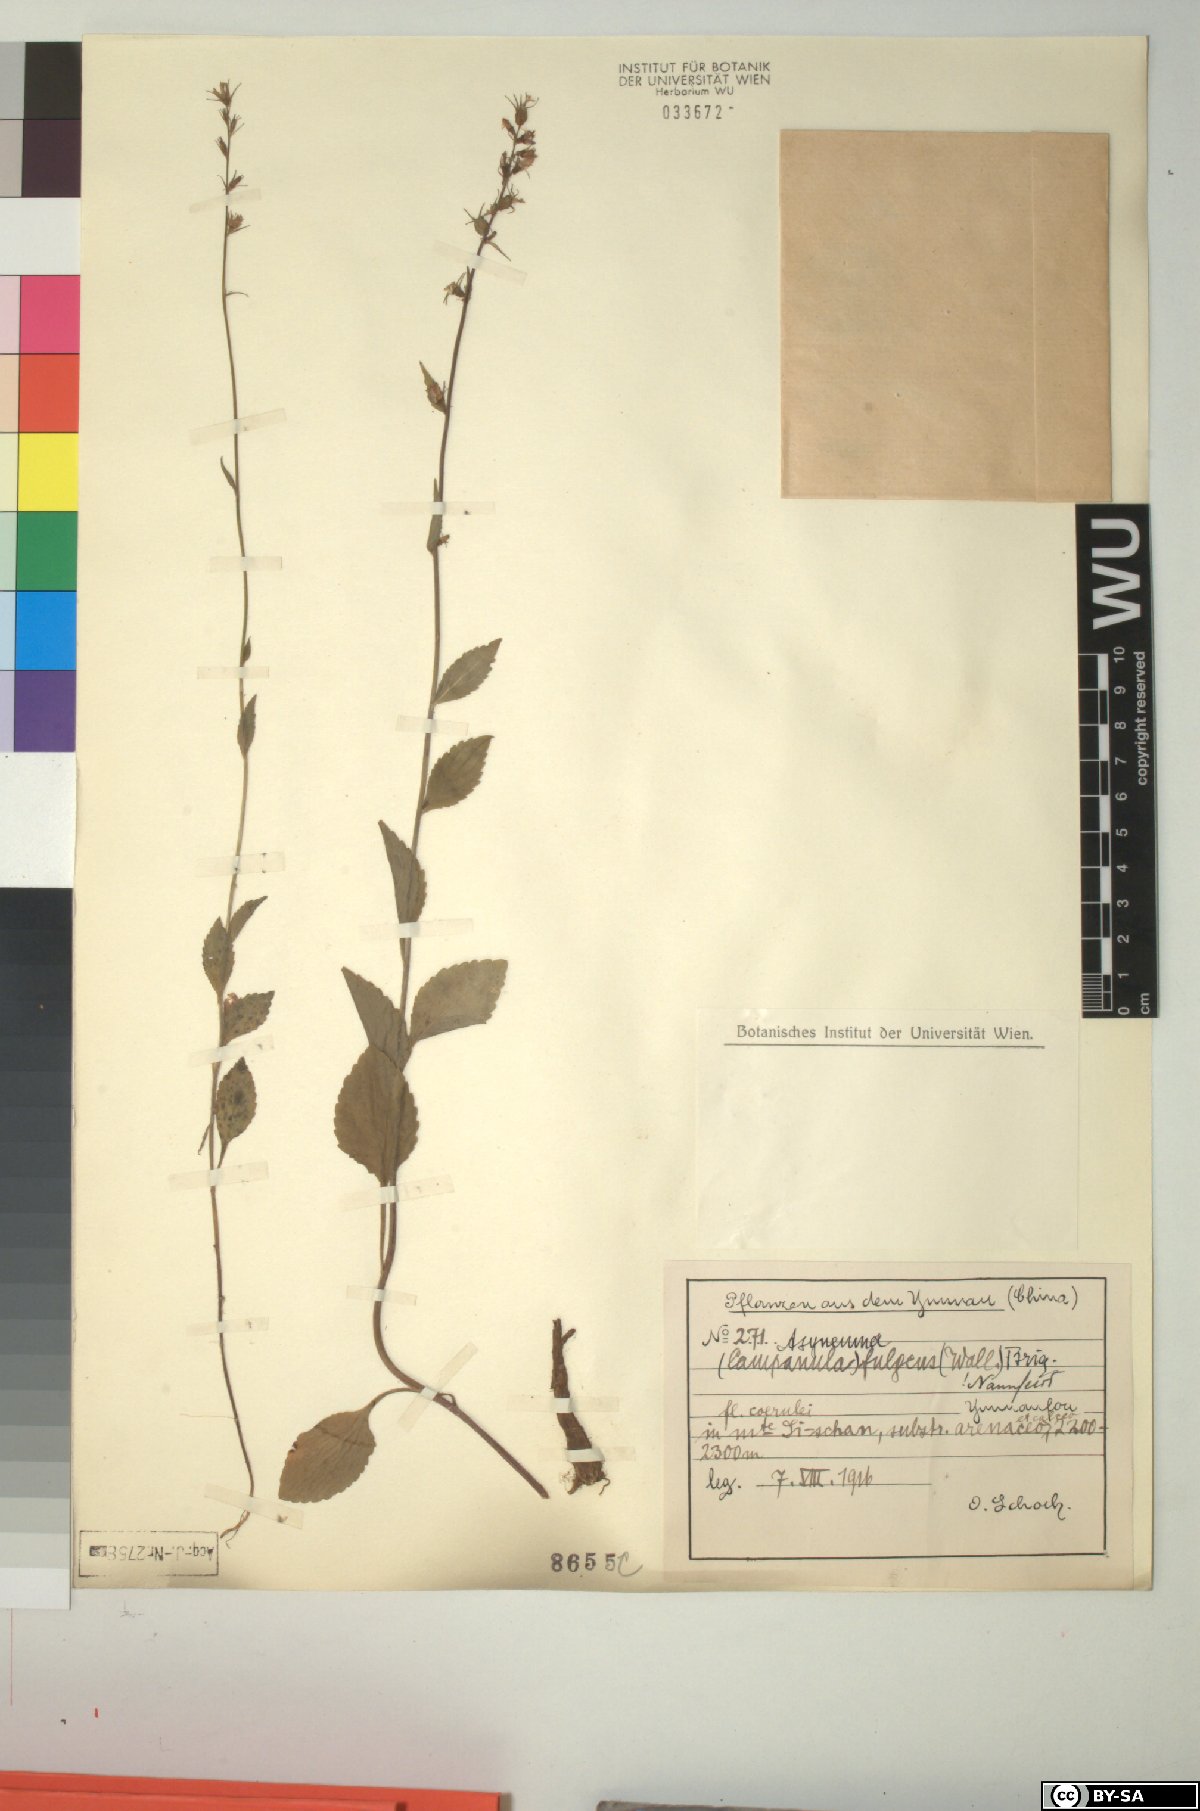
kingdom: Plantae
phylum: Tracheophyta
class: Magnoliopsida
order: Asterales
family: Campanulaceae
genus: Asyneuma
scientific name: Asyneuma fulgens
